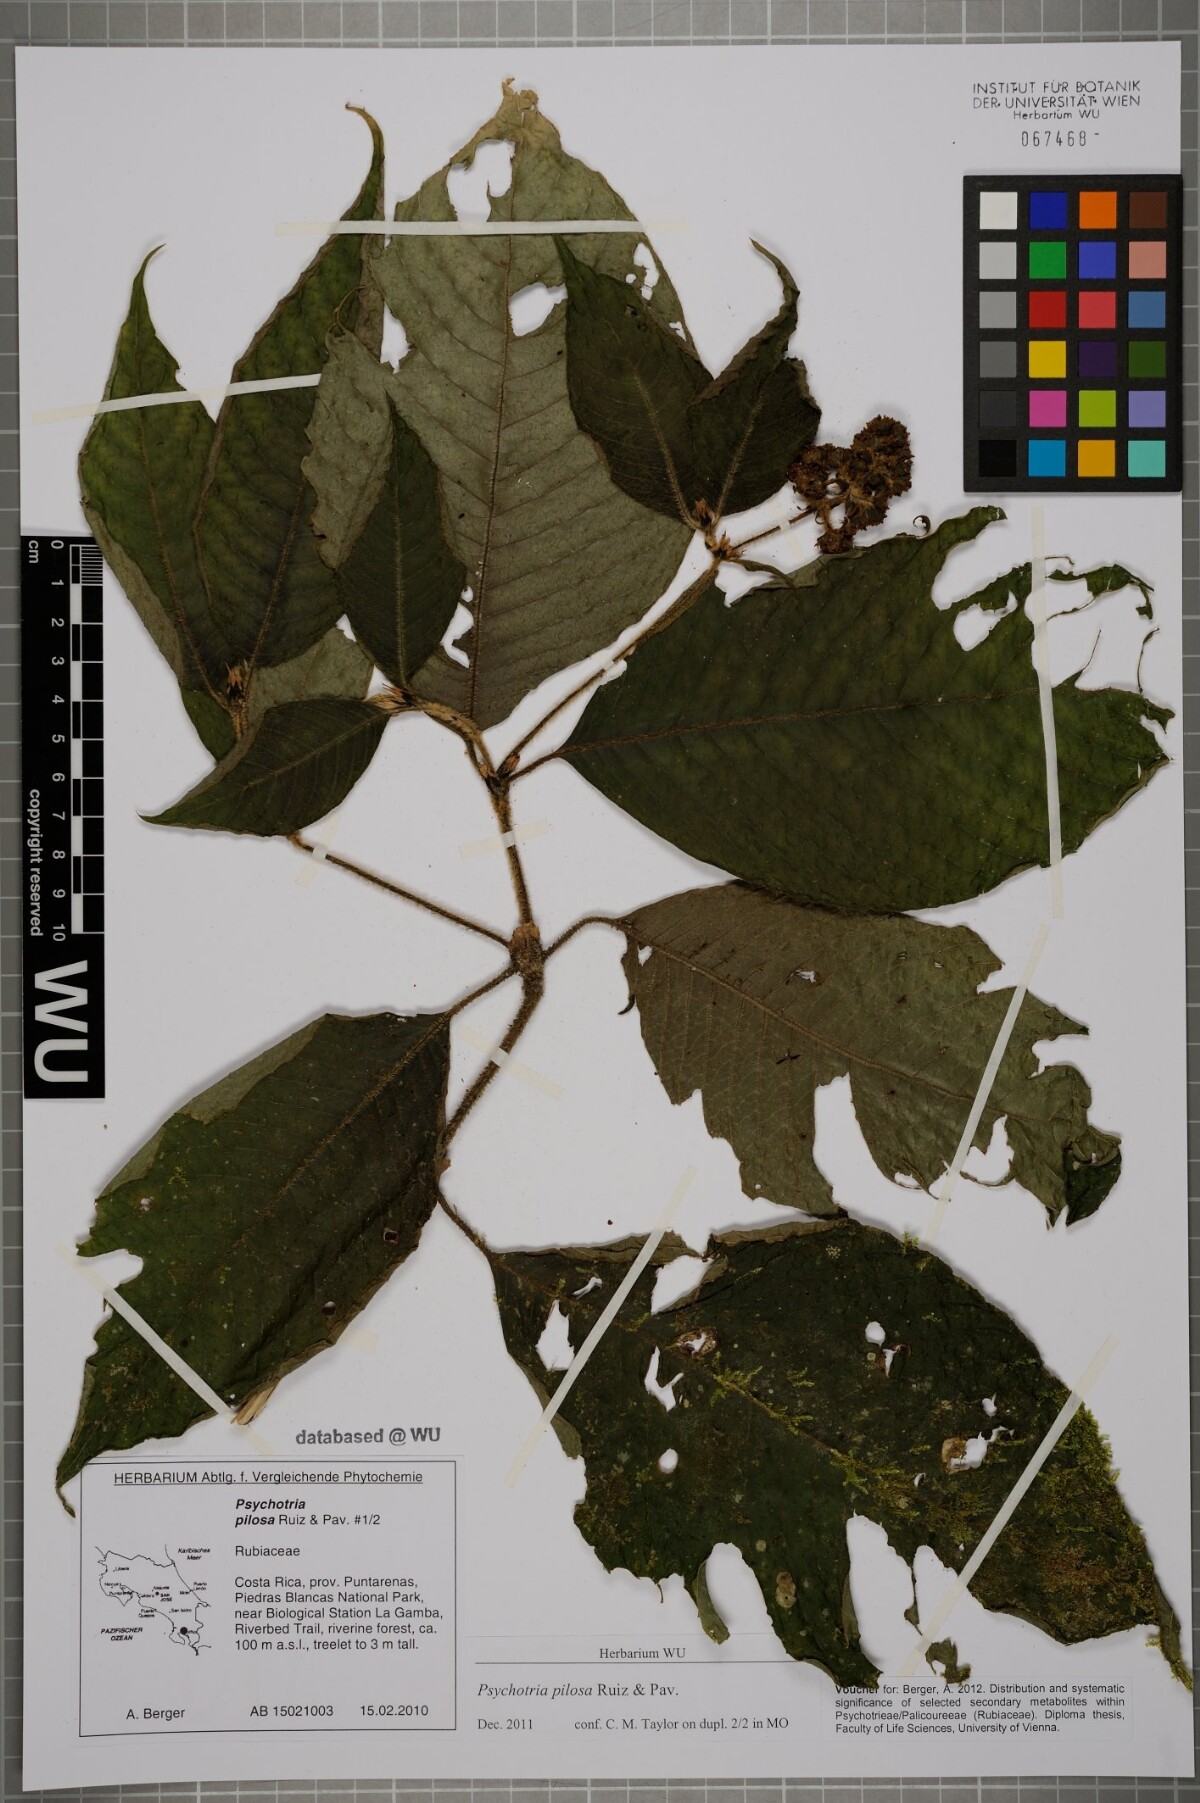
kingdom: Plantae
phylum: Tracheophyta
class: Magnoliopsida
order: Gentianales
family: Rubiaceae
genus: Palicourea
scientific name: Palicourea pilosa
